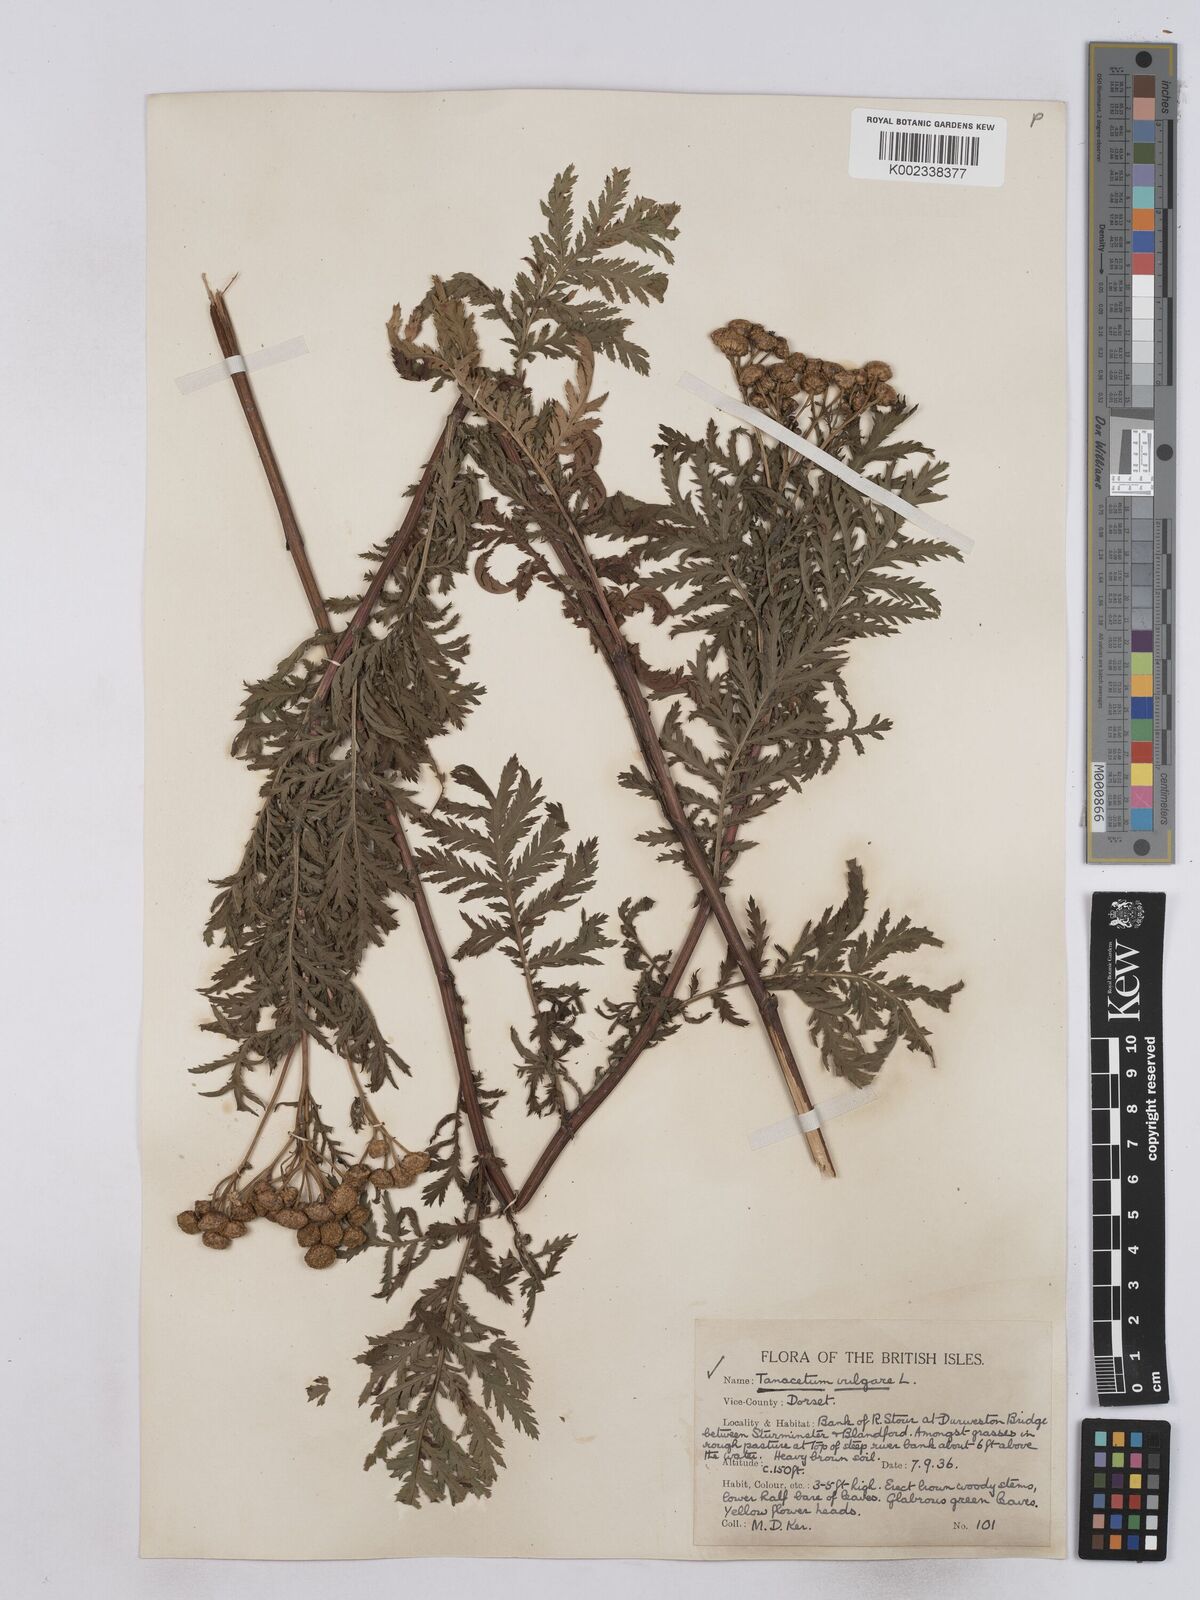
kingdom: Plantae
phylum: Tracheophyta
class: Magnoliopsida
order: Asterales
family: Asteraceae
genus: Tanacetum
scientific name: Tanacetum vulgare
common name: Common tansy
